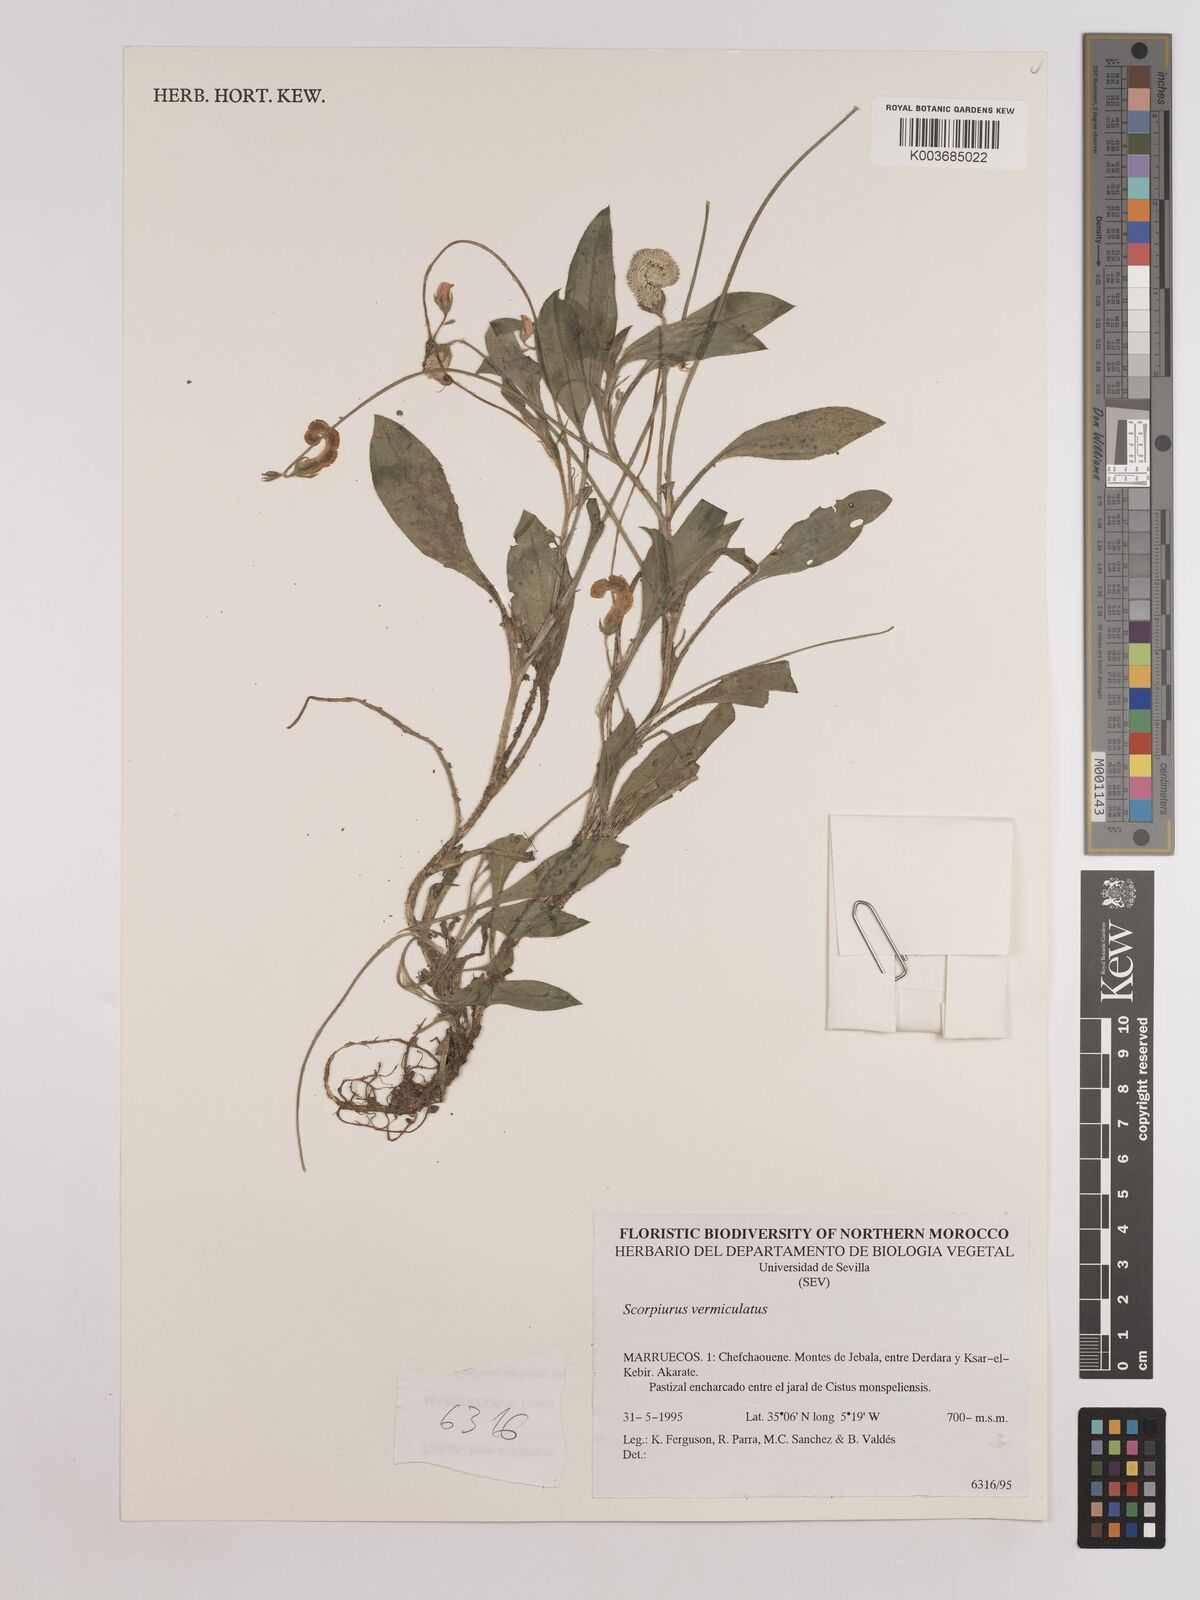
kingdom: Plantae
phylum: Tracheophyta
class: Magnoliopsida
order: Fabales
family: Fabaceae
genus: Scorpiurus
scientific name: Scorpiurus vermiculatus
